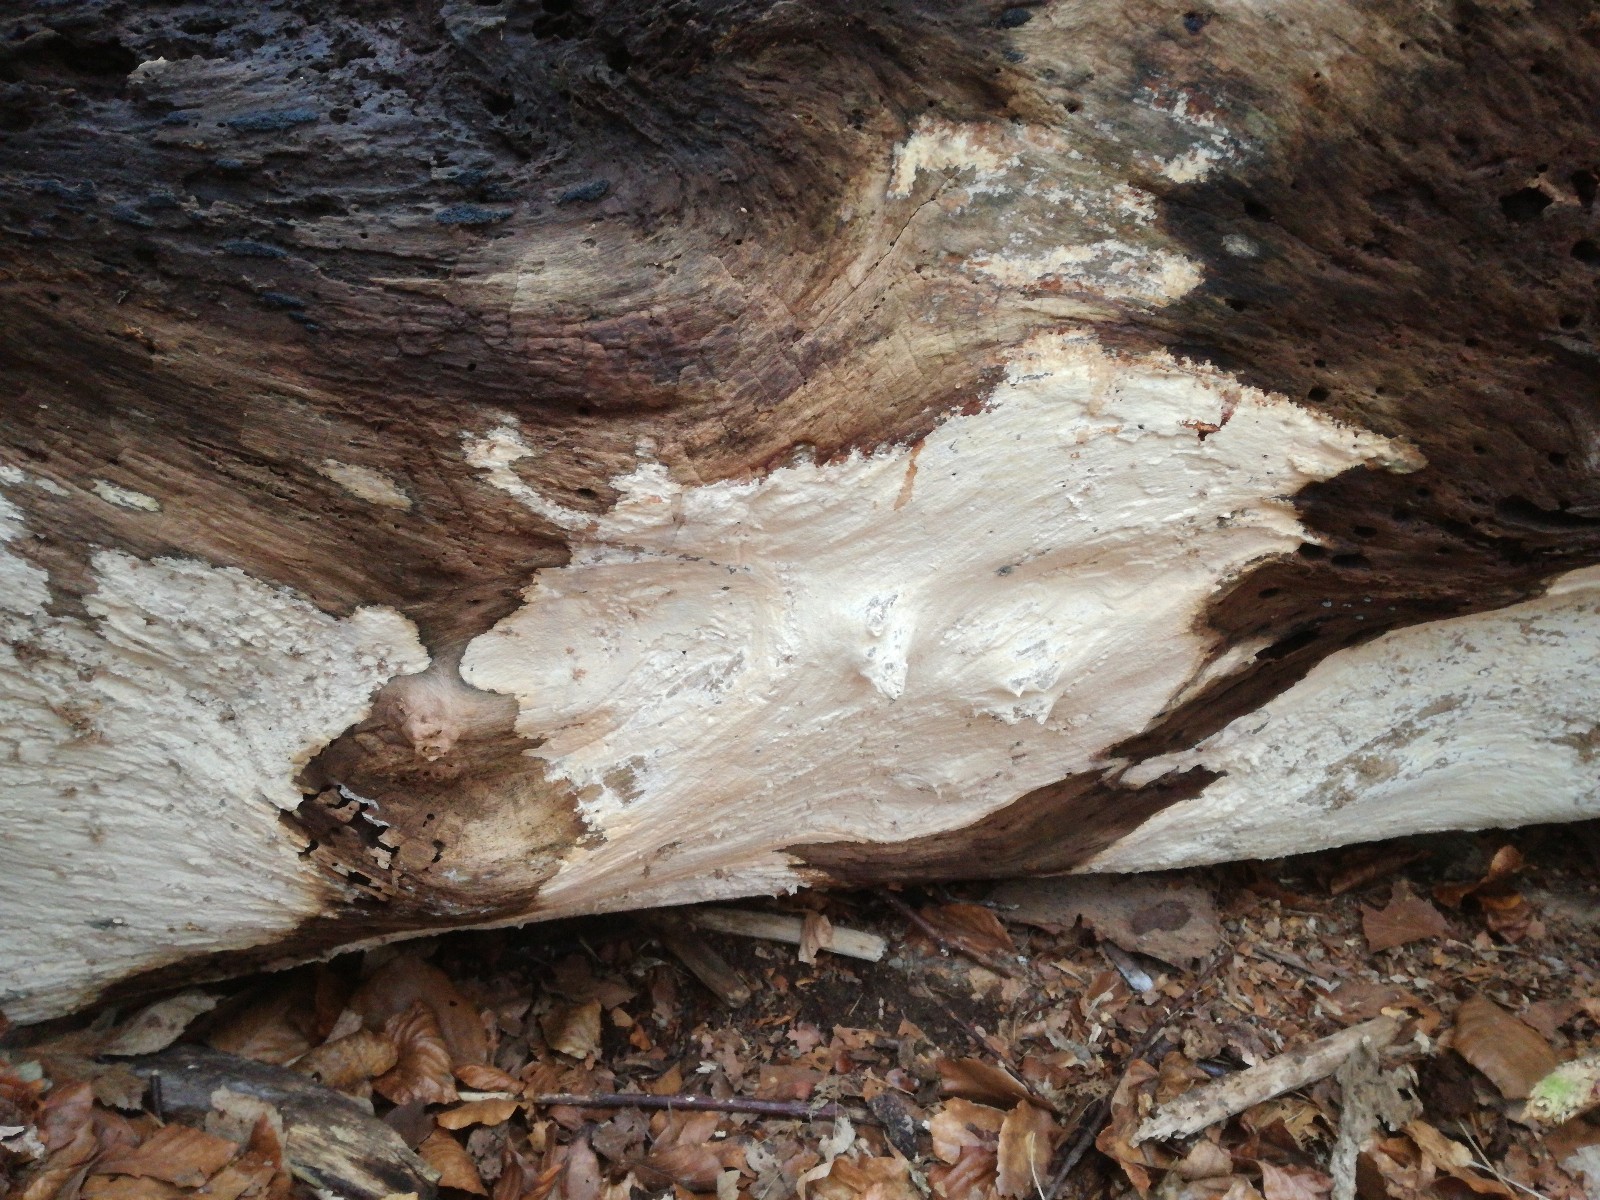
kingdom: Fungi
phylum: Basidiomycota
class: Agaricomycetes
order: Russulales
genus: Gloeohypochnicium
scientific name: Gloeohypochnicium analogum
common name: frugt-kalkskind
